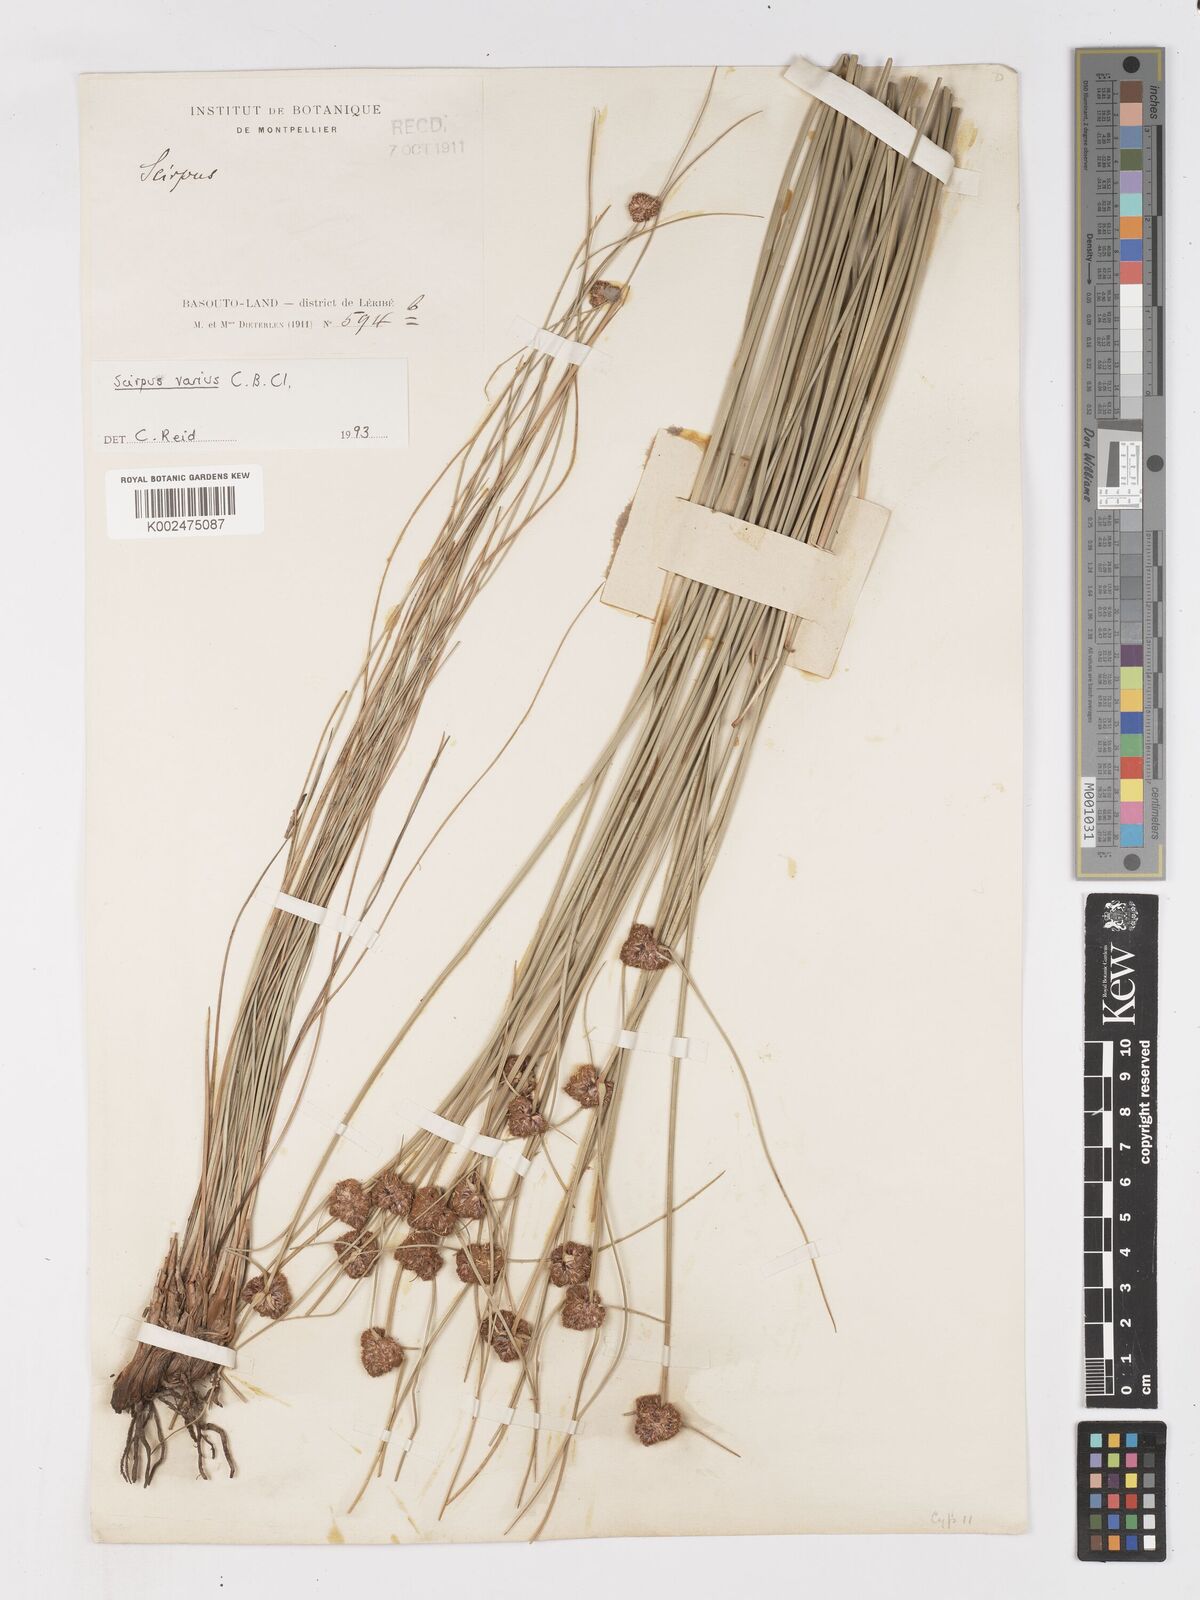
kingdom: Plantae
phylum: Tracheophyta
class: Liliopsida
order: Poales
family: Cyperaceae
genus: Ficinia
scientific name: Ficinia
